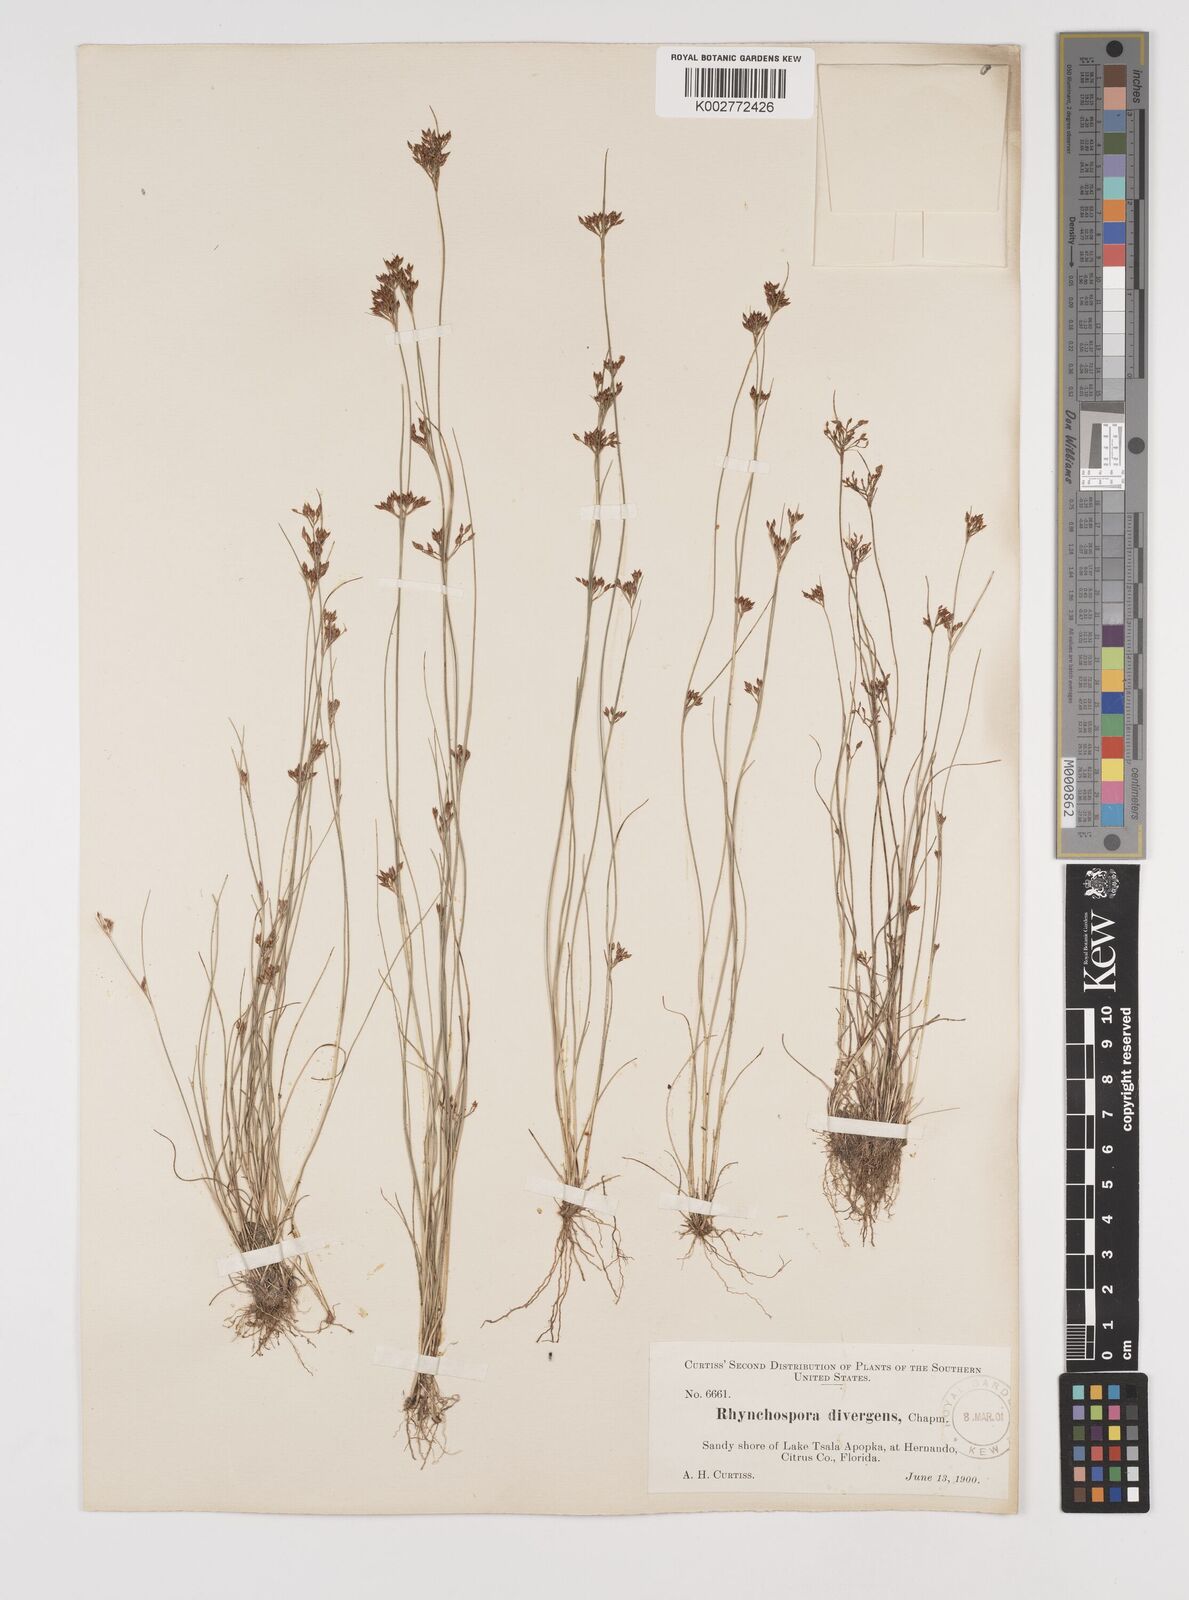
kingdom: Plantae
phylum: Tracheophyta
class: Liliopsida
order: Poales
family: Cyperaceae
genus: Rhynchospora
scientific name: Rhynchospora divergens
